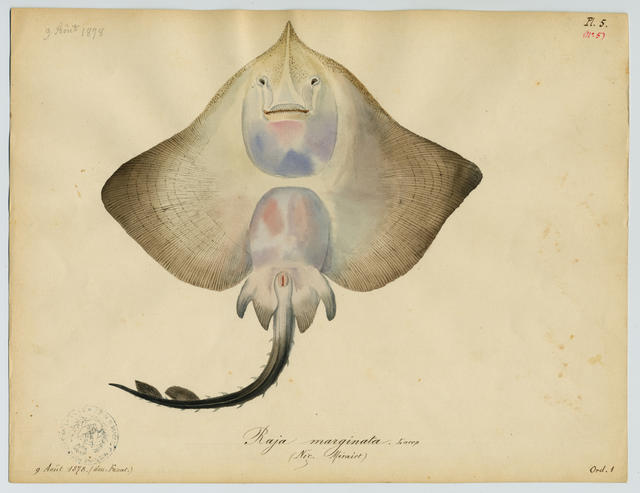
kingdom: Animalia
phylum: Chordata
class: Elasmobranchii
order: Rajiformes
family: Rajidae
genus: Rostroraja
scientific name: Rostroraja alba
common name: White skate
